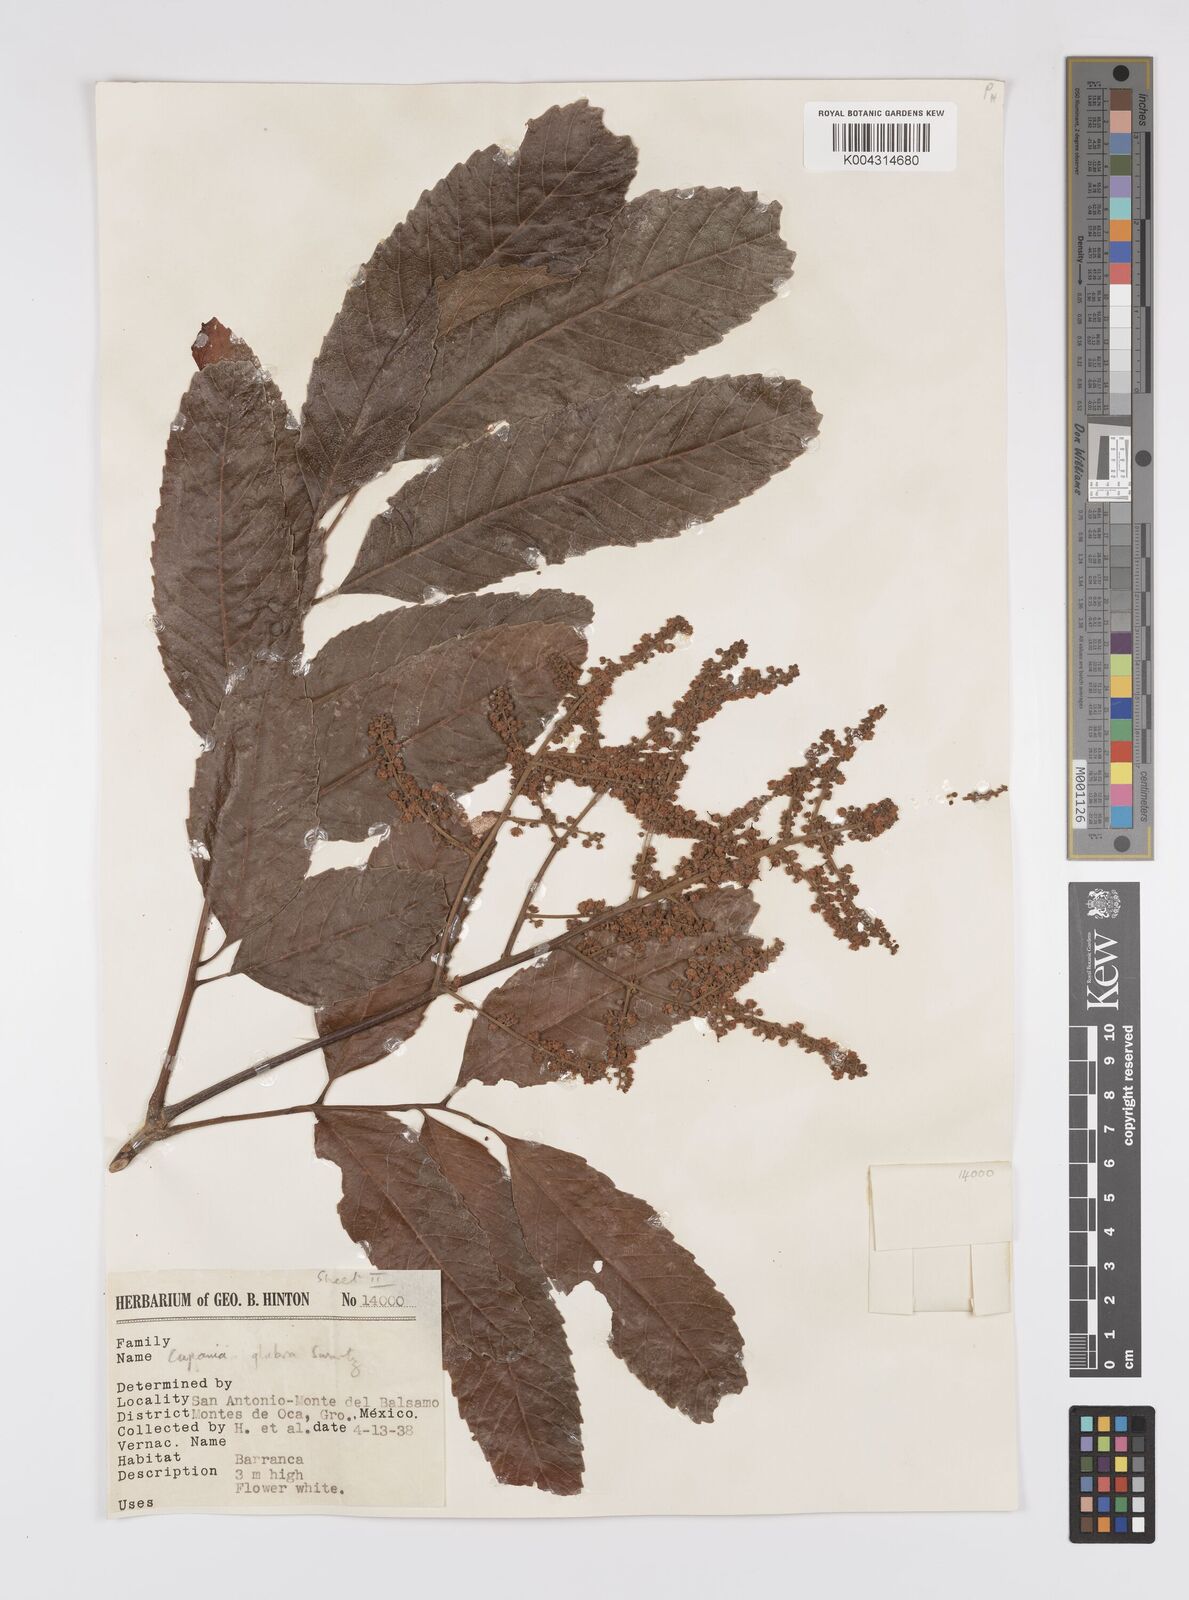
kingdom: Plantae
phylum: Tracheophyta
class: Magnoliopsida
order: Sapindales
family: Sapindaceae
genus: Cupania
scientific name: Cupania
